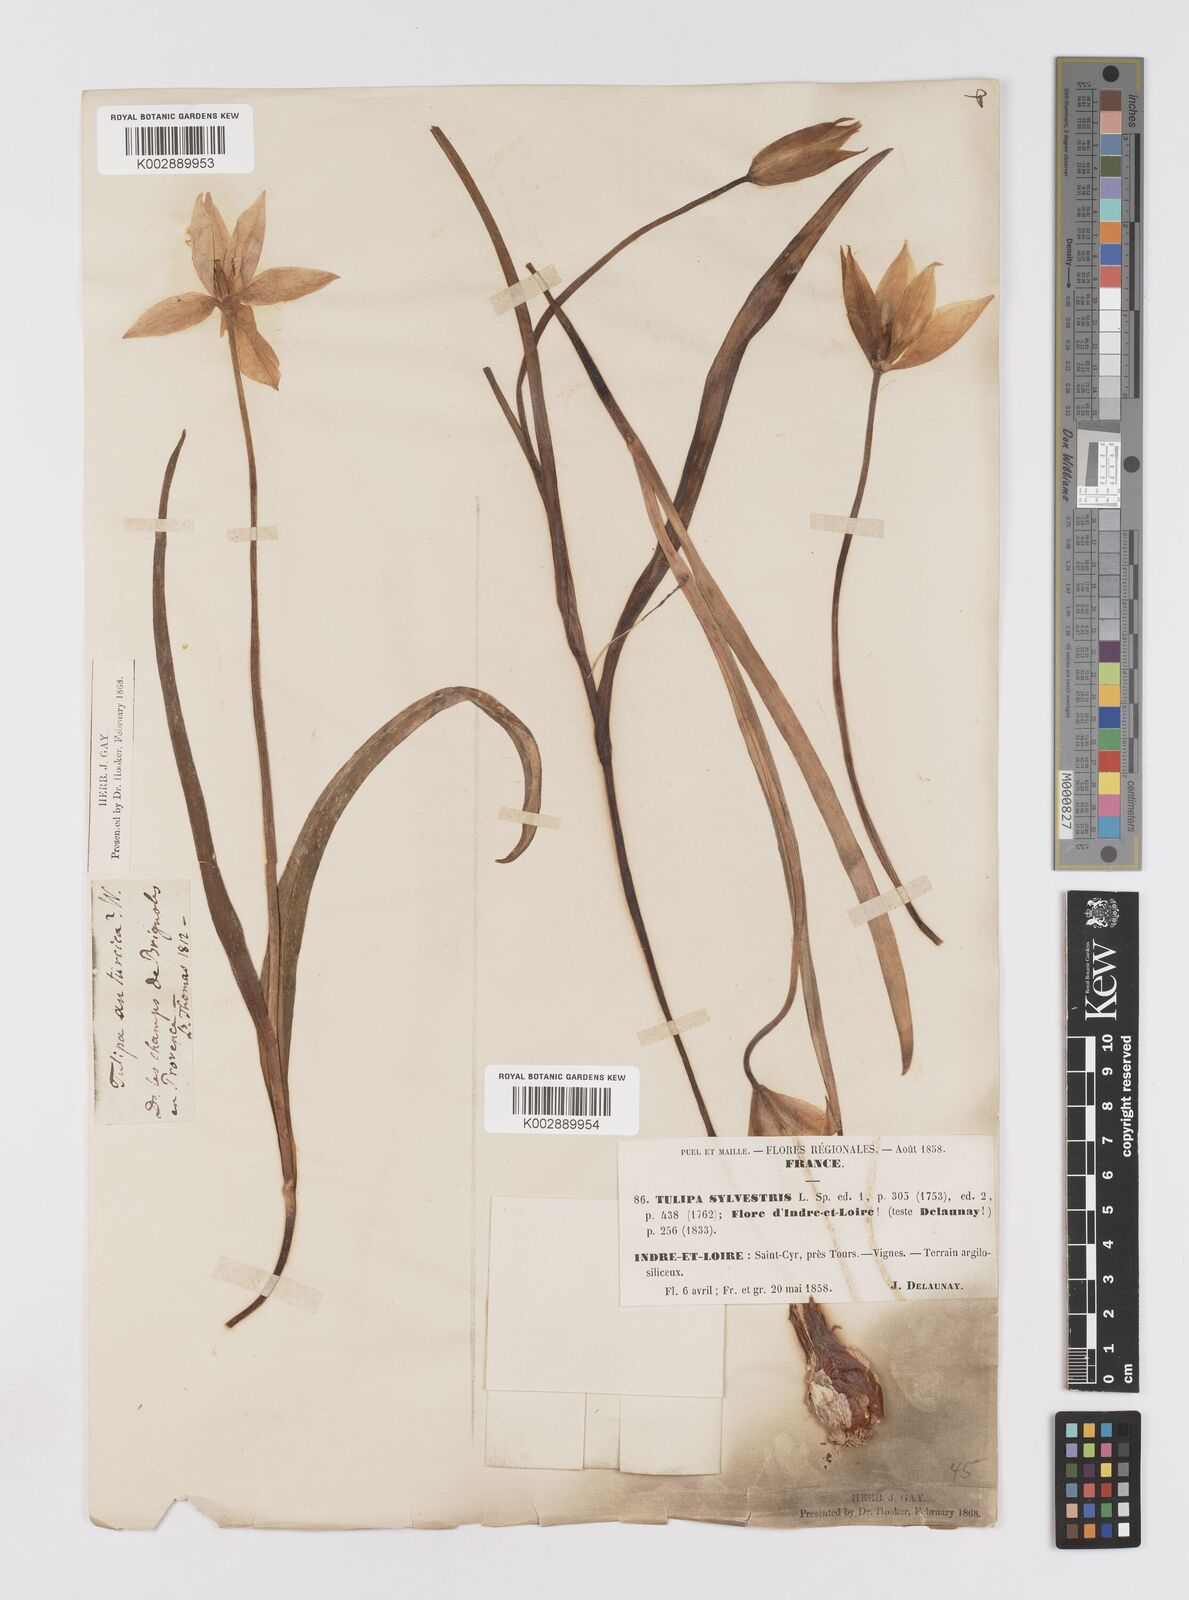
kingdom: Plantae
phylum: Tracheophyta
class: Liliopsida
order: Liliales
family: Liliaceae
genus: Tulipa
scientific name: Tulipa sylvestris
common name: Wild tulip
